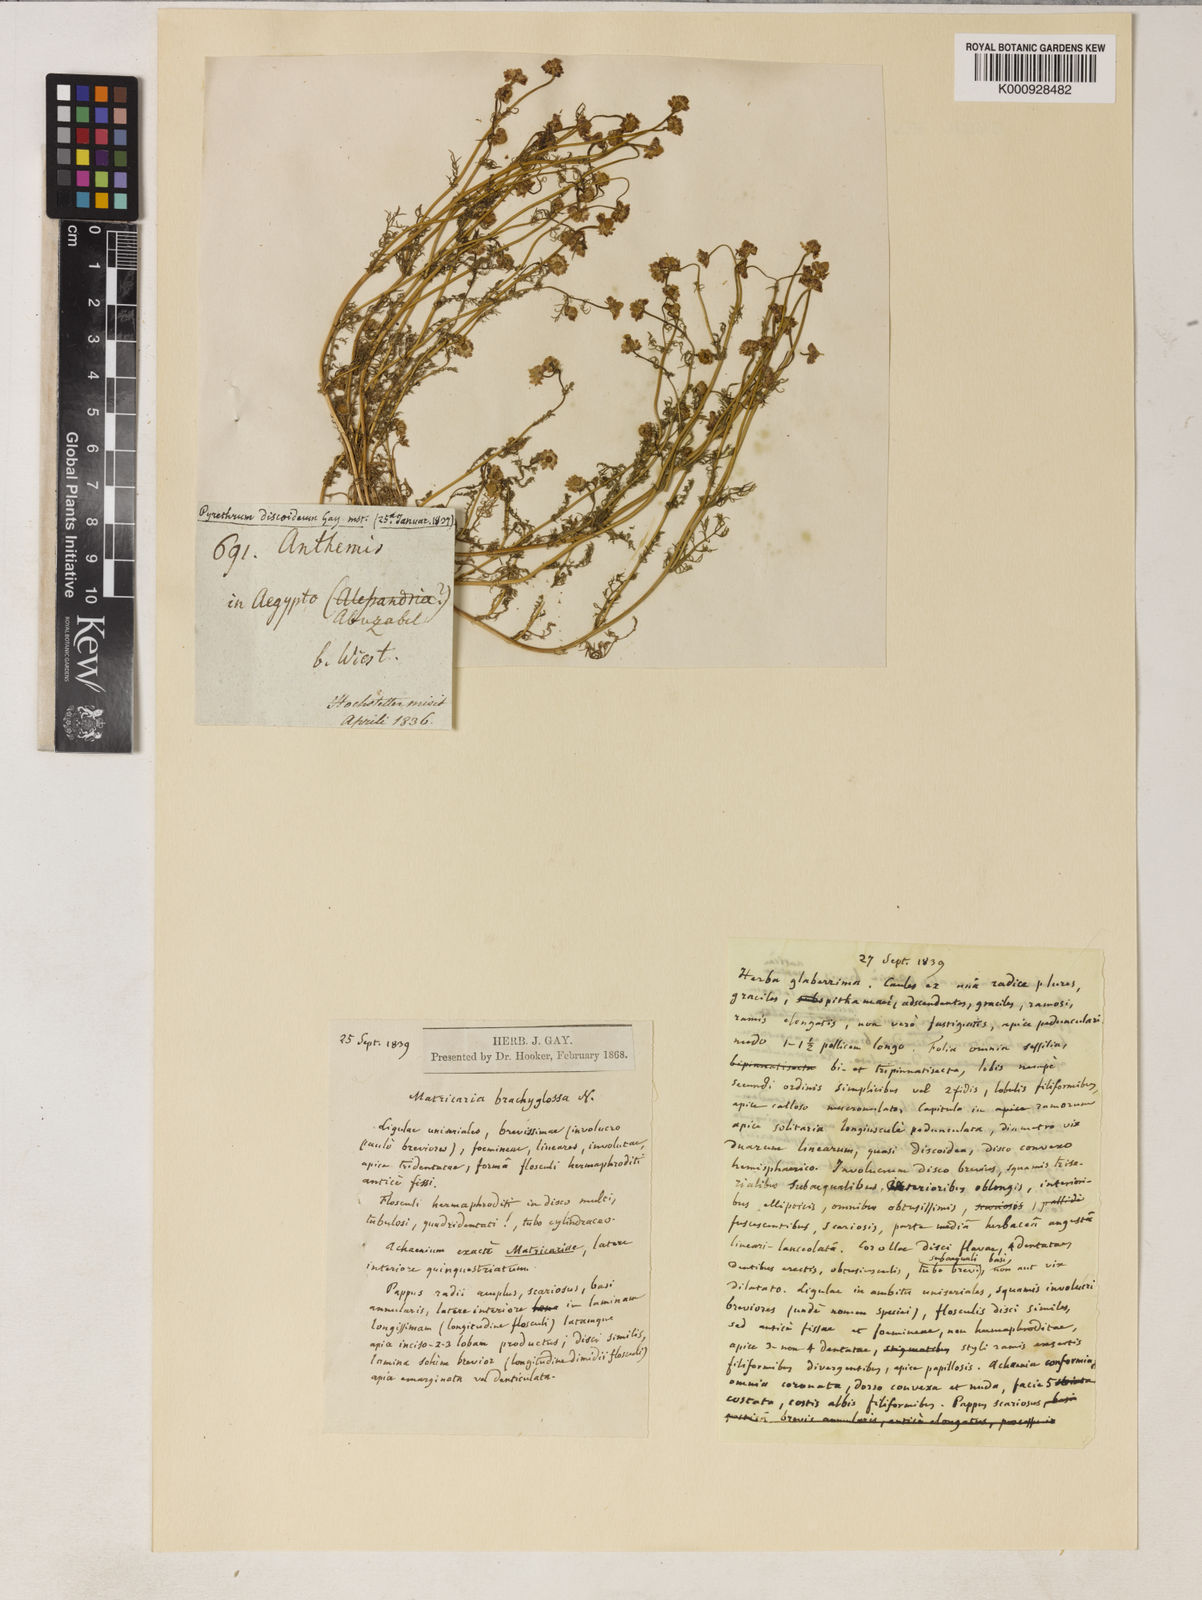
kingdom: Plantae
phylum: Tracheophyta
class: Magnoliopsida
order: Asterales
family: Asteraceae
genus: Matricaria
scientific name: Matricaria aurea
